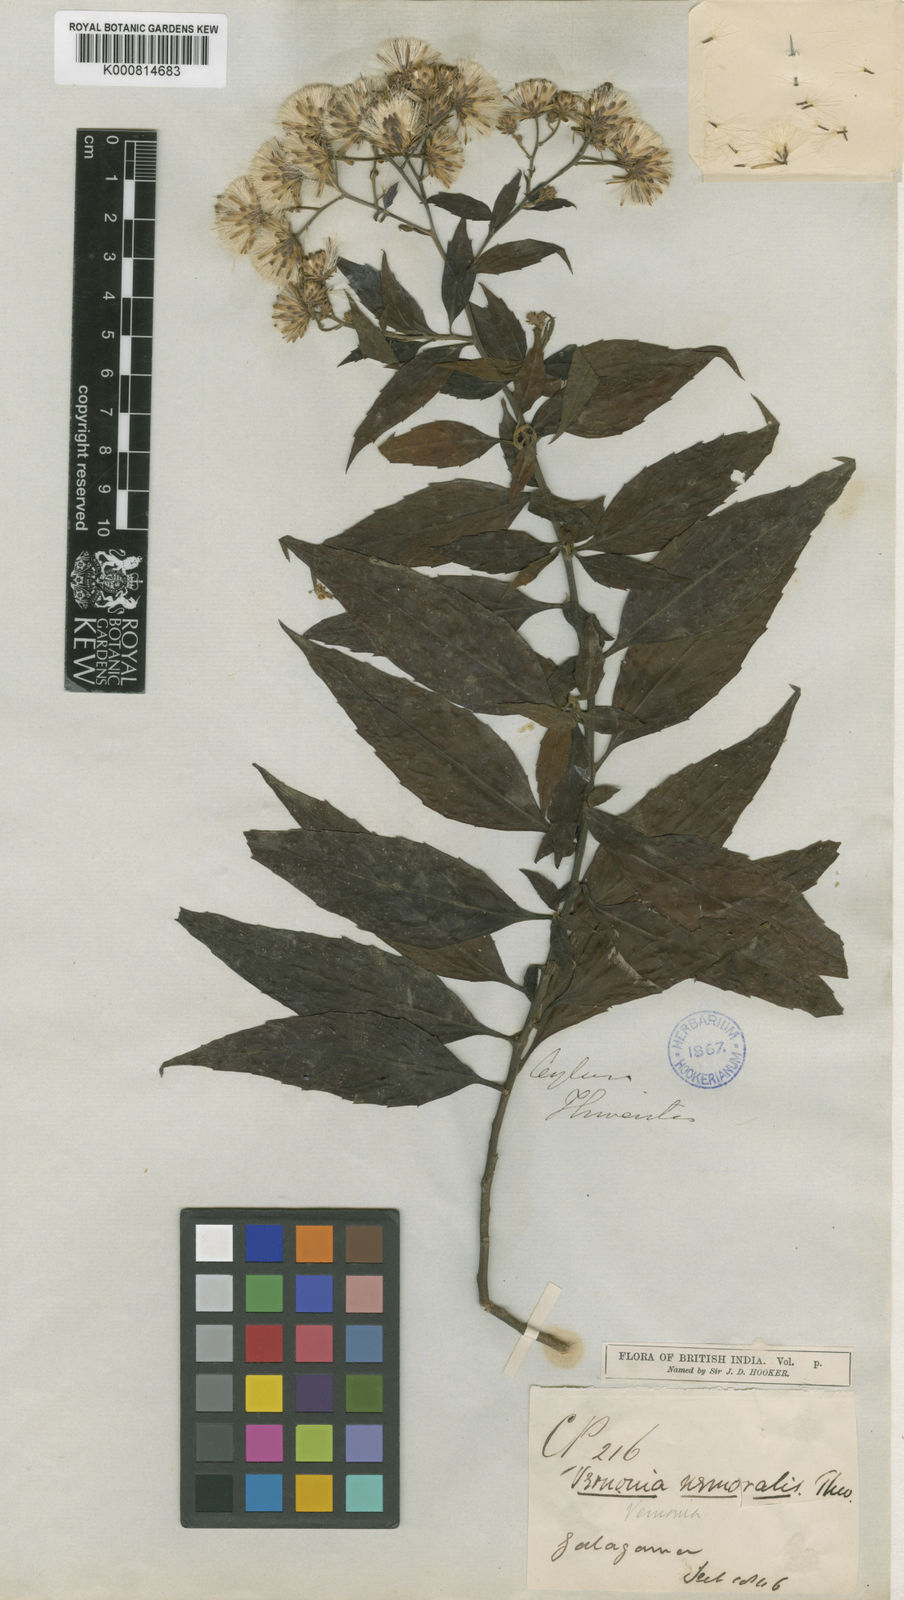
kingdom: Plantae
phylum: Tracheophyta
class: Magnoliopsida
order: Asterales
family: Asteraceae
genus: Acilepis
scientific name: Acilepis nemoralis
